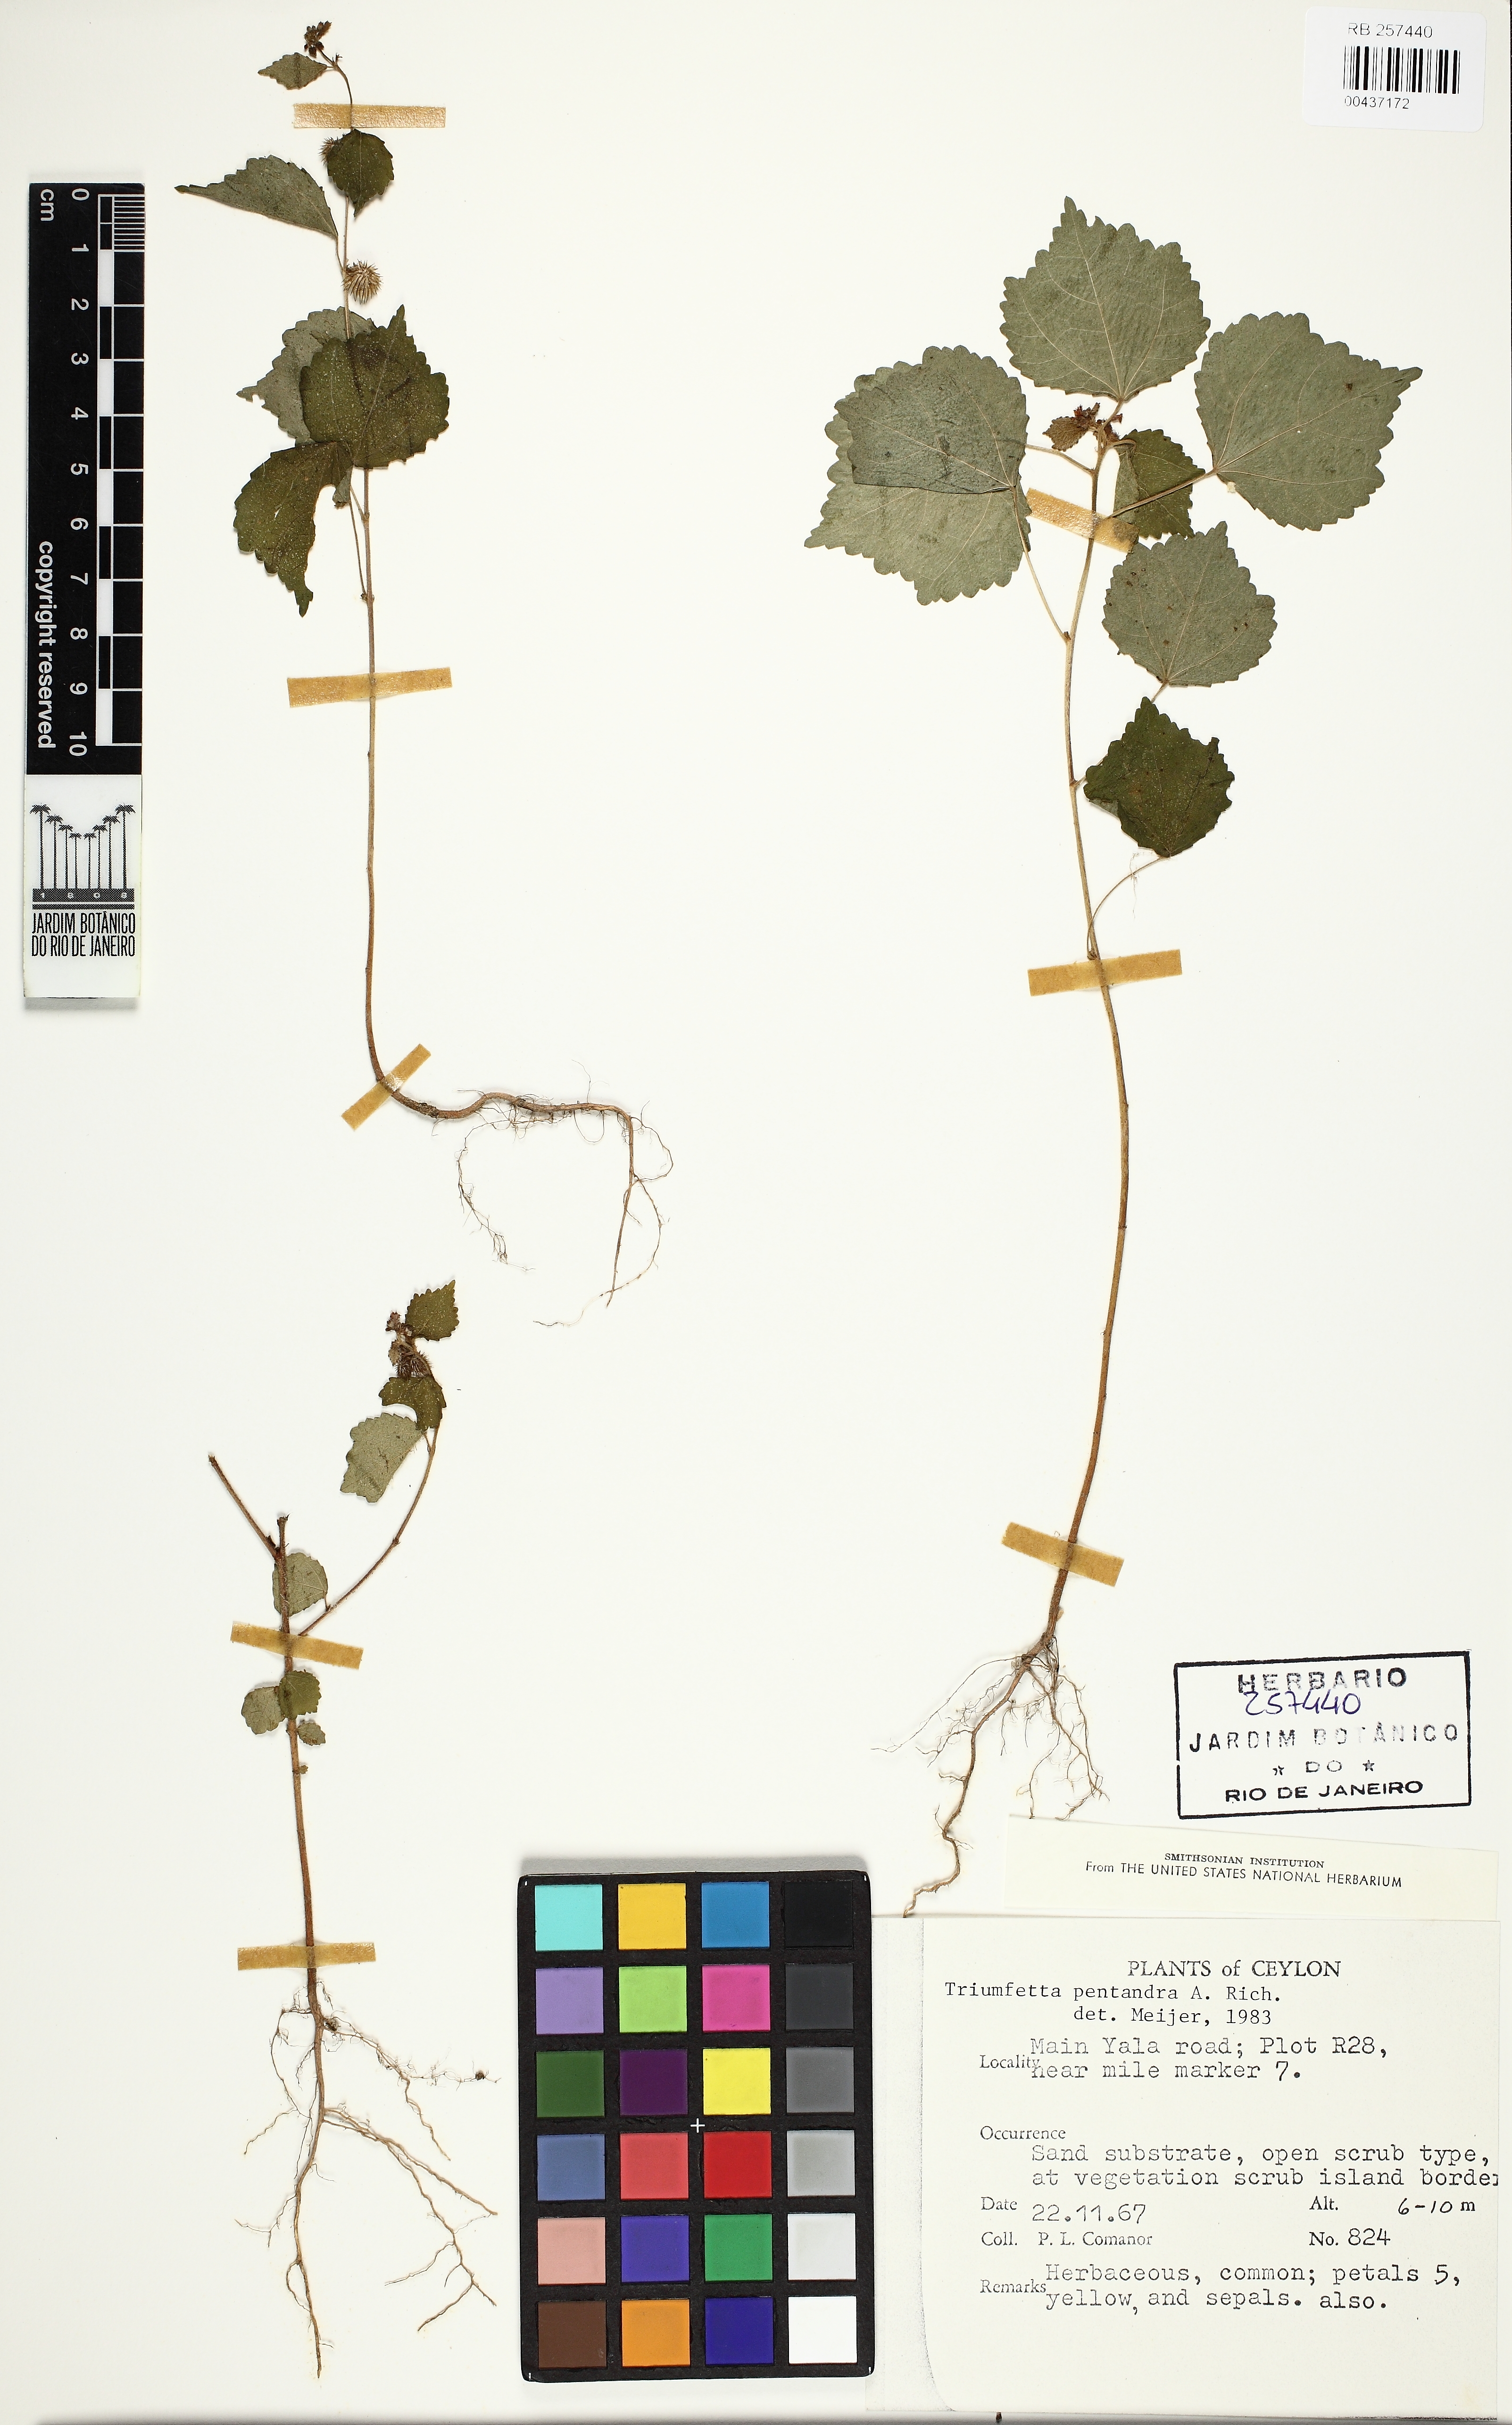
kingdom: Plantae
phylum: Tracheophyta
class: Magnoliopsida
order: Malvales
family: Malvaceae
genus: Triumfetta
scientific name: Triumfetta pentandra
